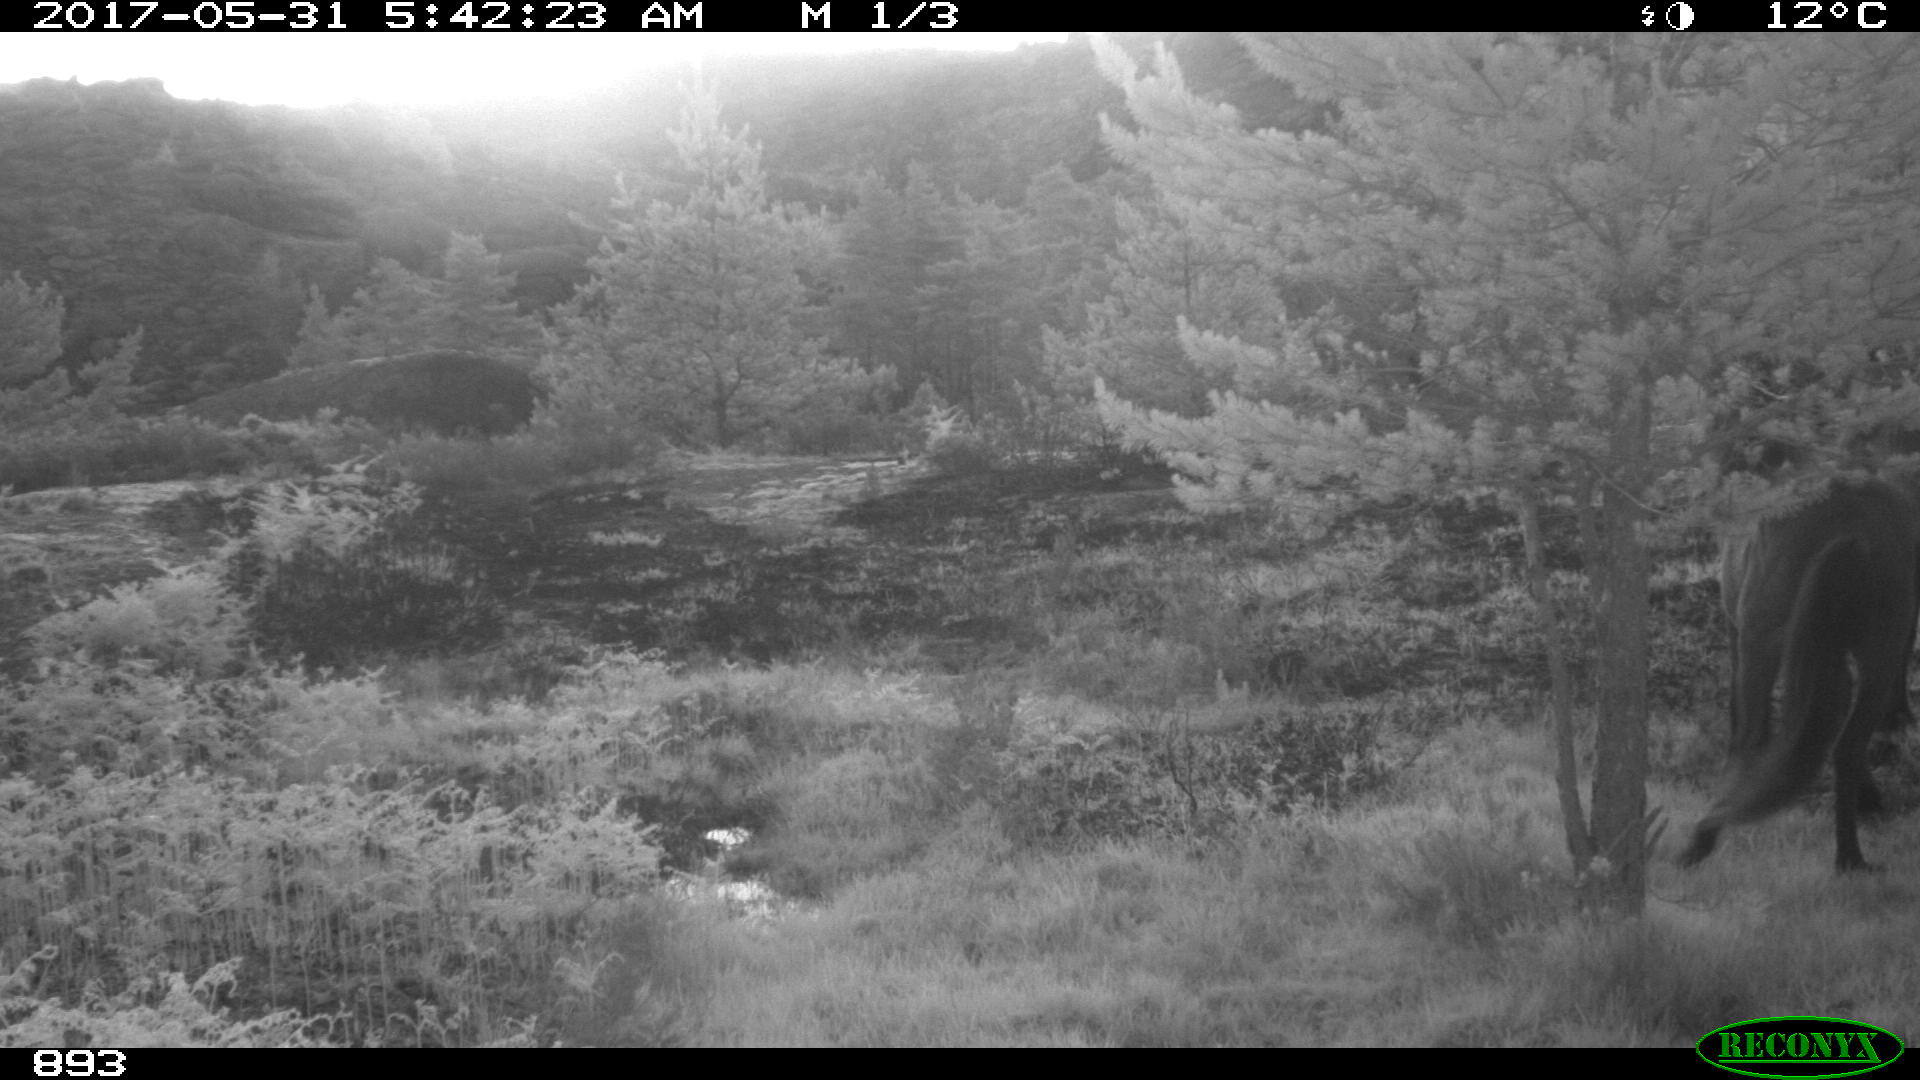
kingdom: Animalia
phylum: Chordata
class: Mammalia
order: Perissodactyla
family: Equidae
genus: Equus
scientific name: Equus caballus
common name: Horse
